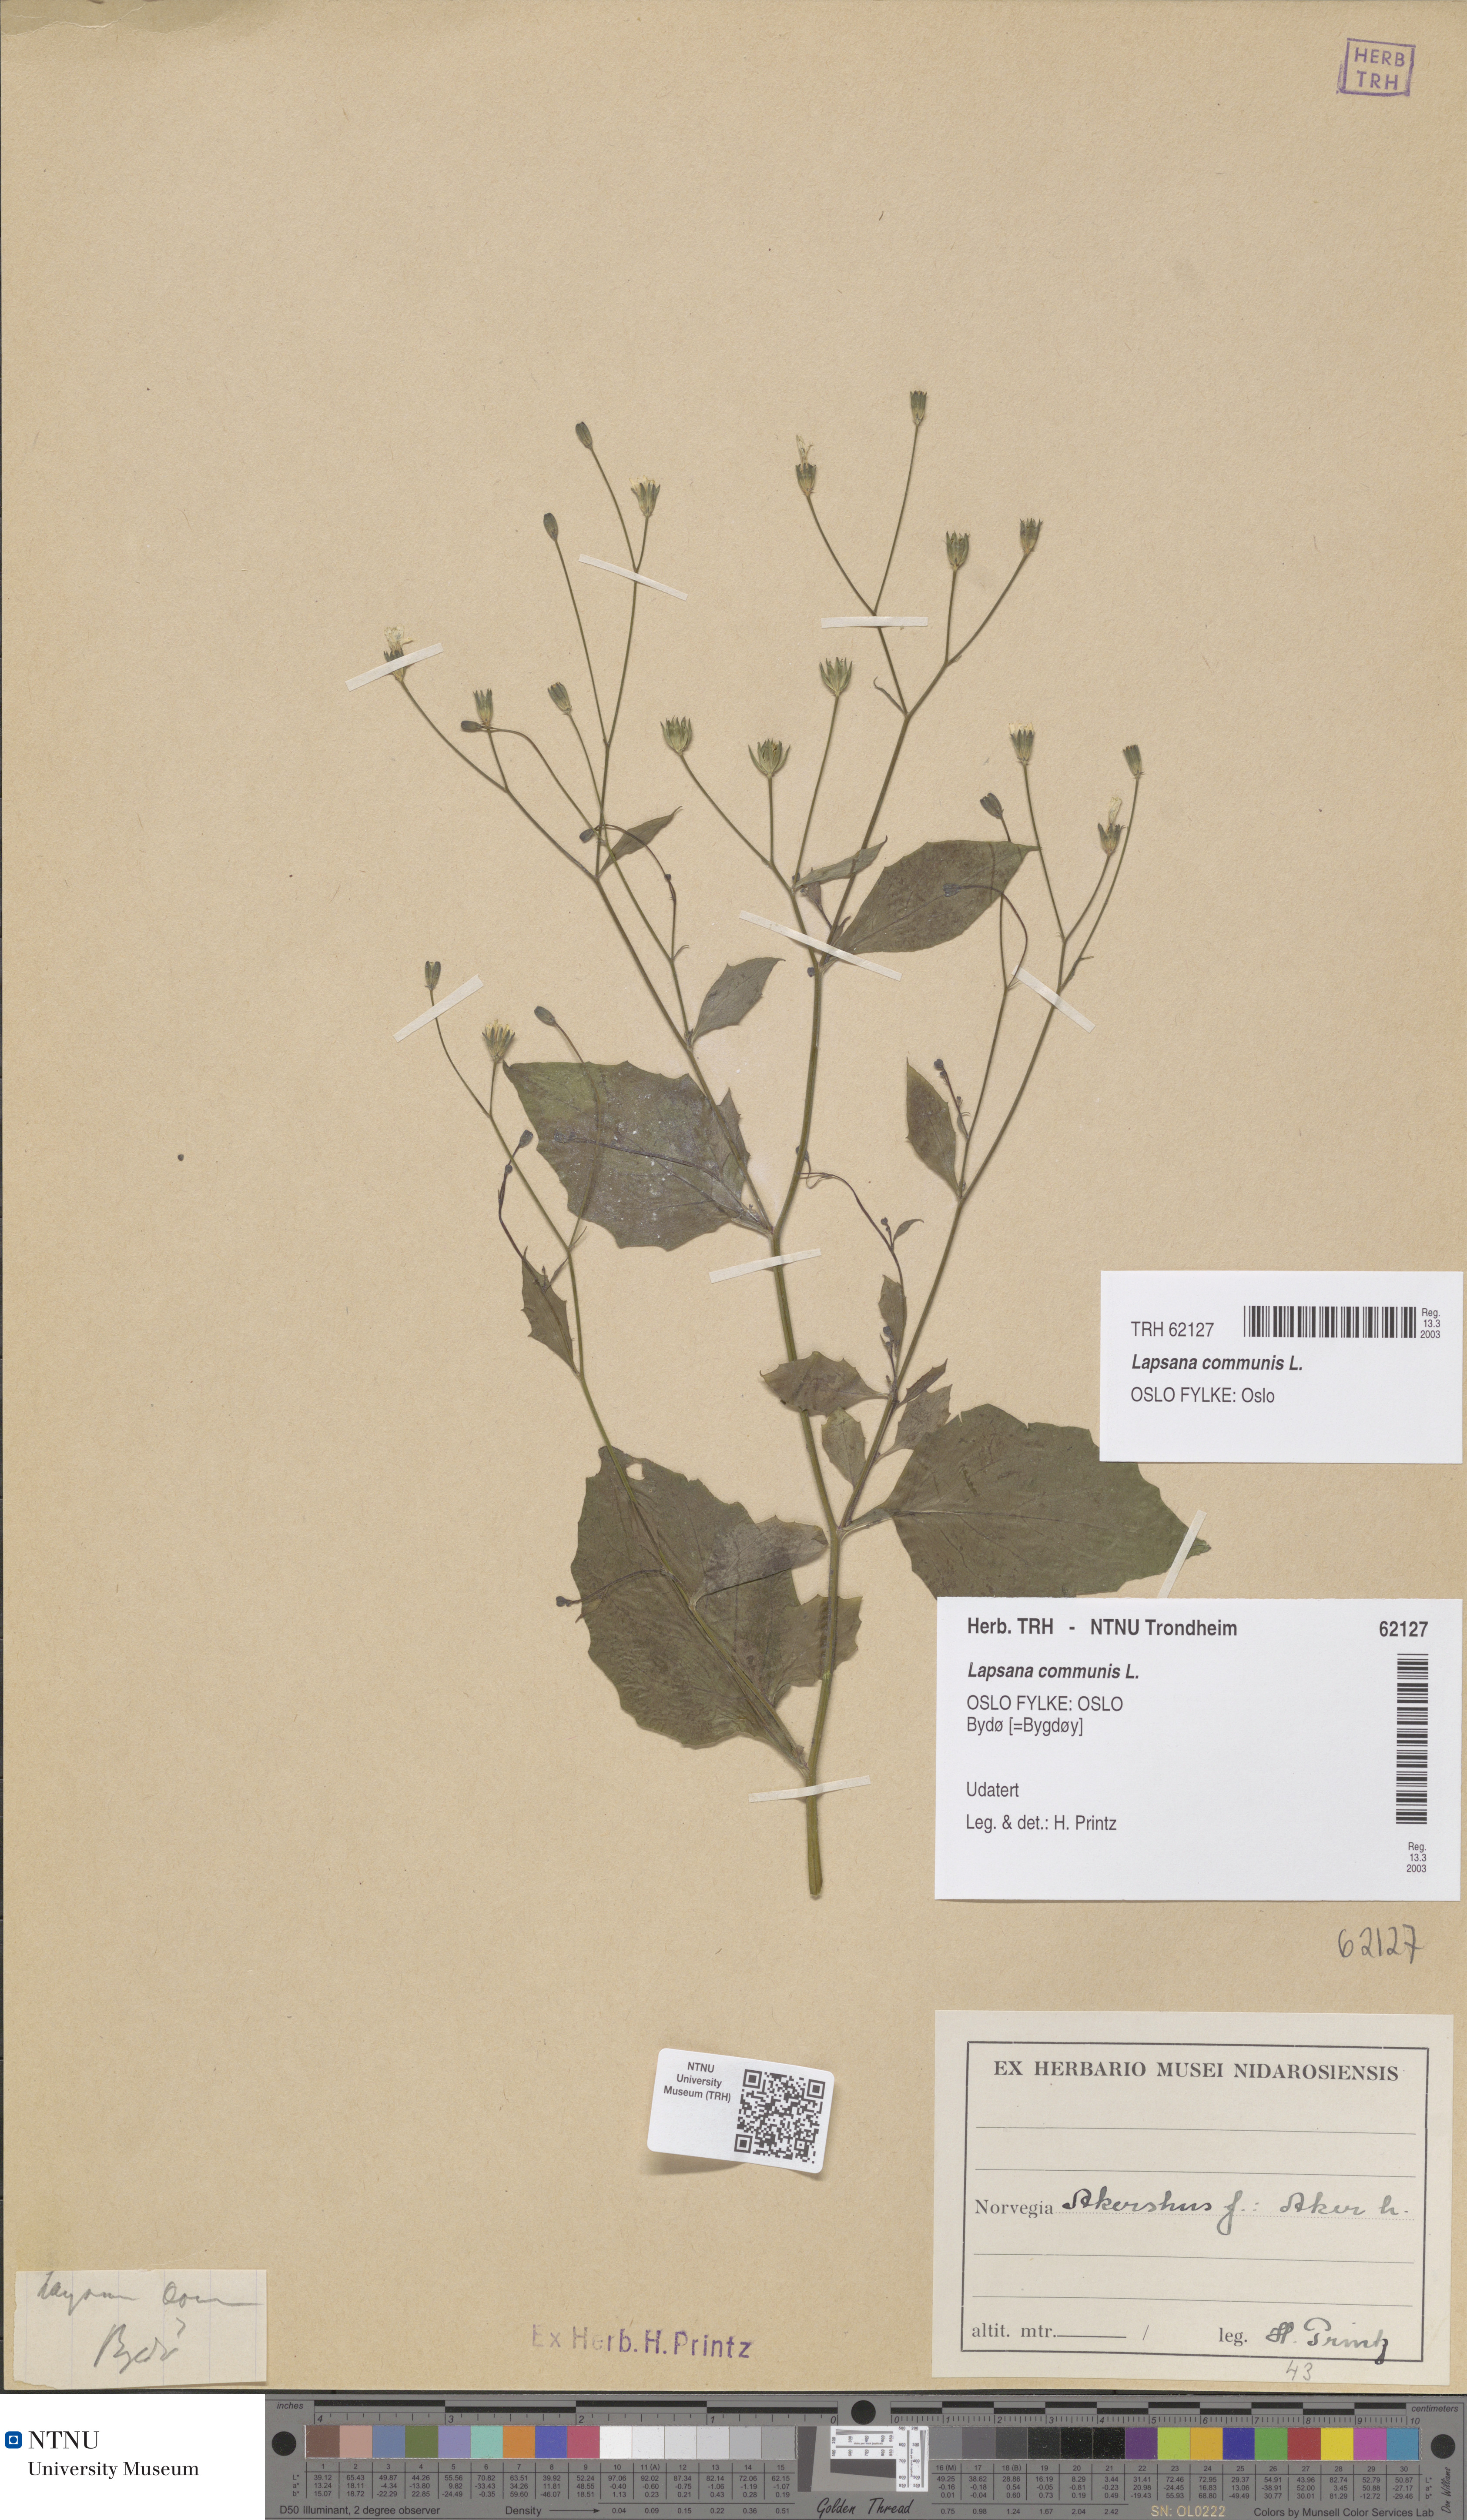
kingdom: Plantae
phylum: Tracheophyta
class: Magnoliopsida
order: Asterales
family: Asteraceae
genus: Lapsana
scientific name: Lapsana communis
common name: Nipplewort
